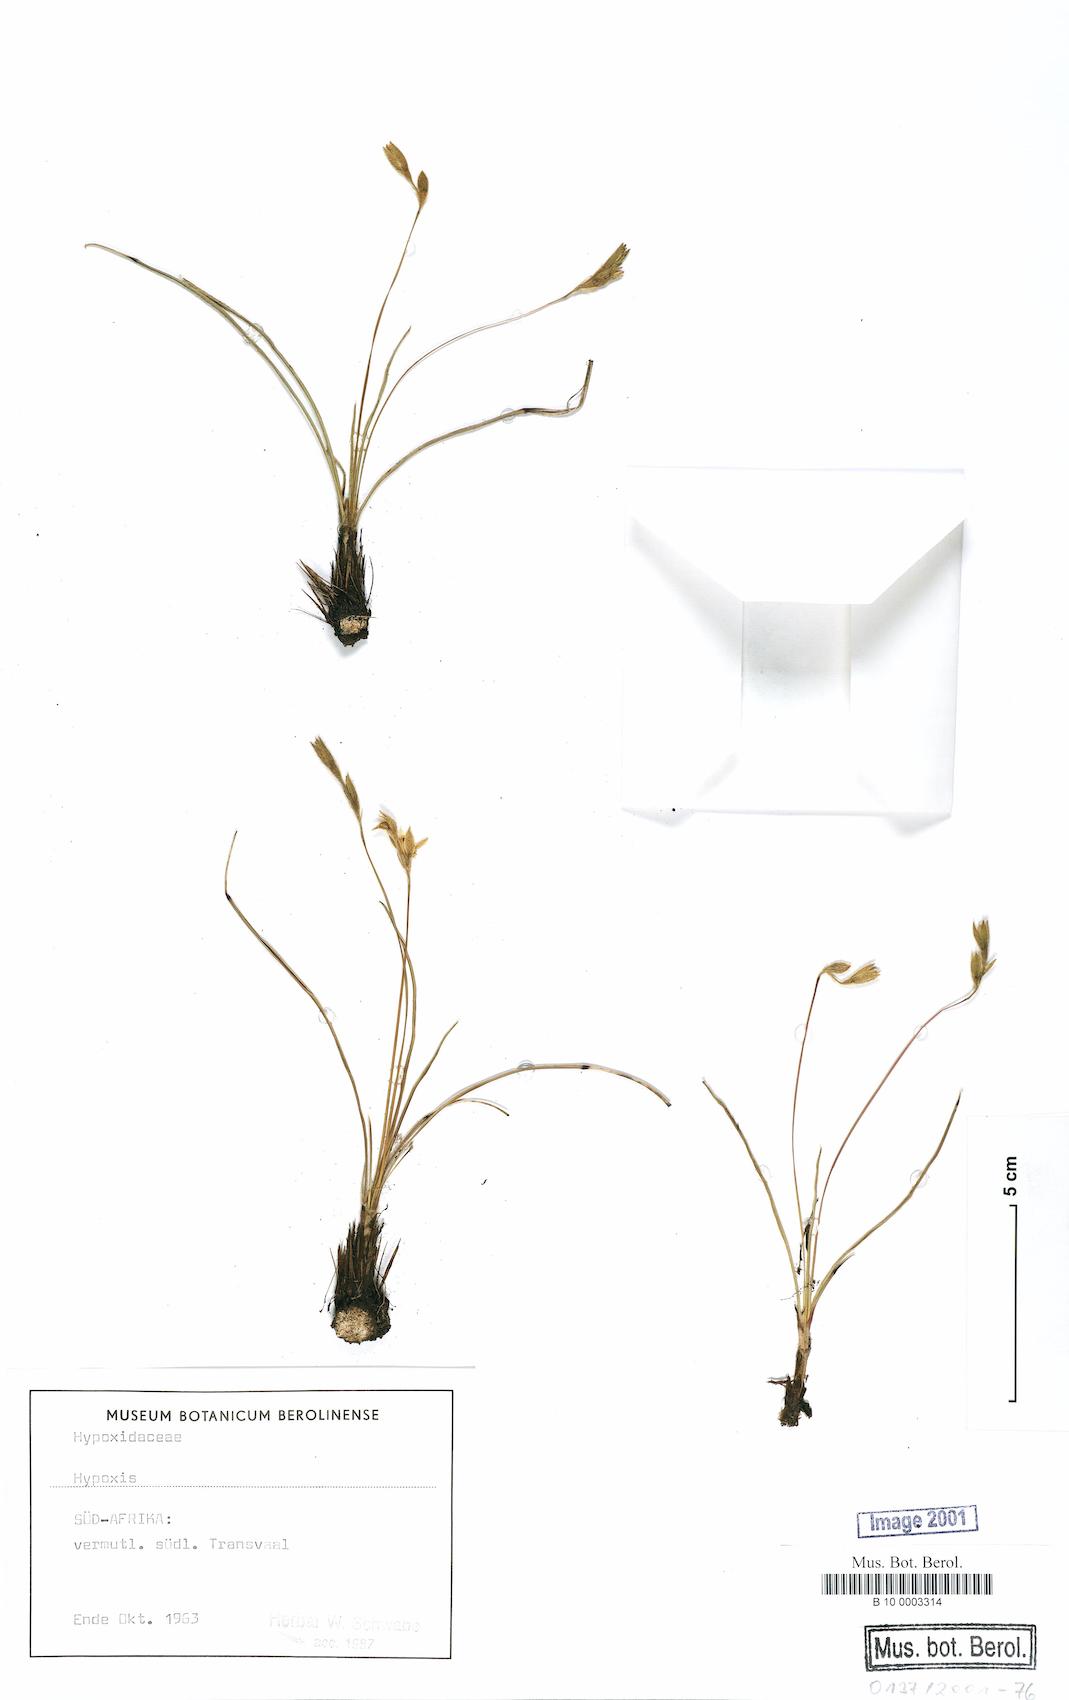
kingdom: Plantae
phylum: Tracheophyta
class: Liliopsida
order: Asparagales
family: Hypoxidaceae
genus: Hypoxis
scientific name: Hypoxis
